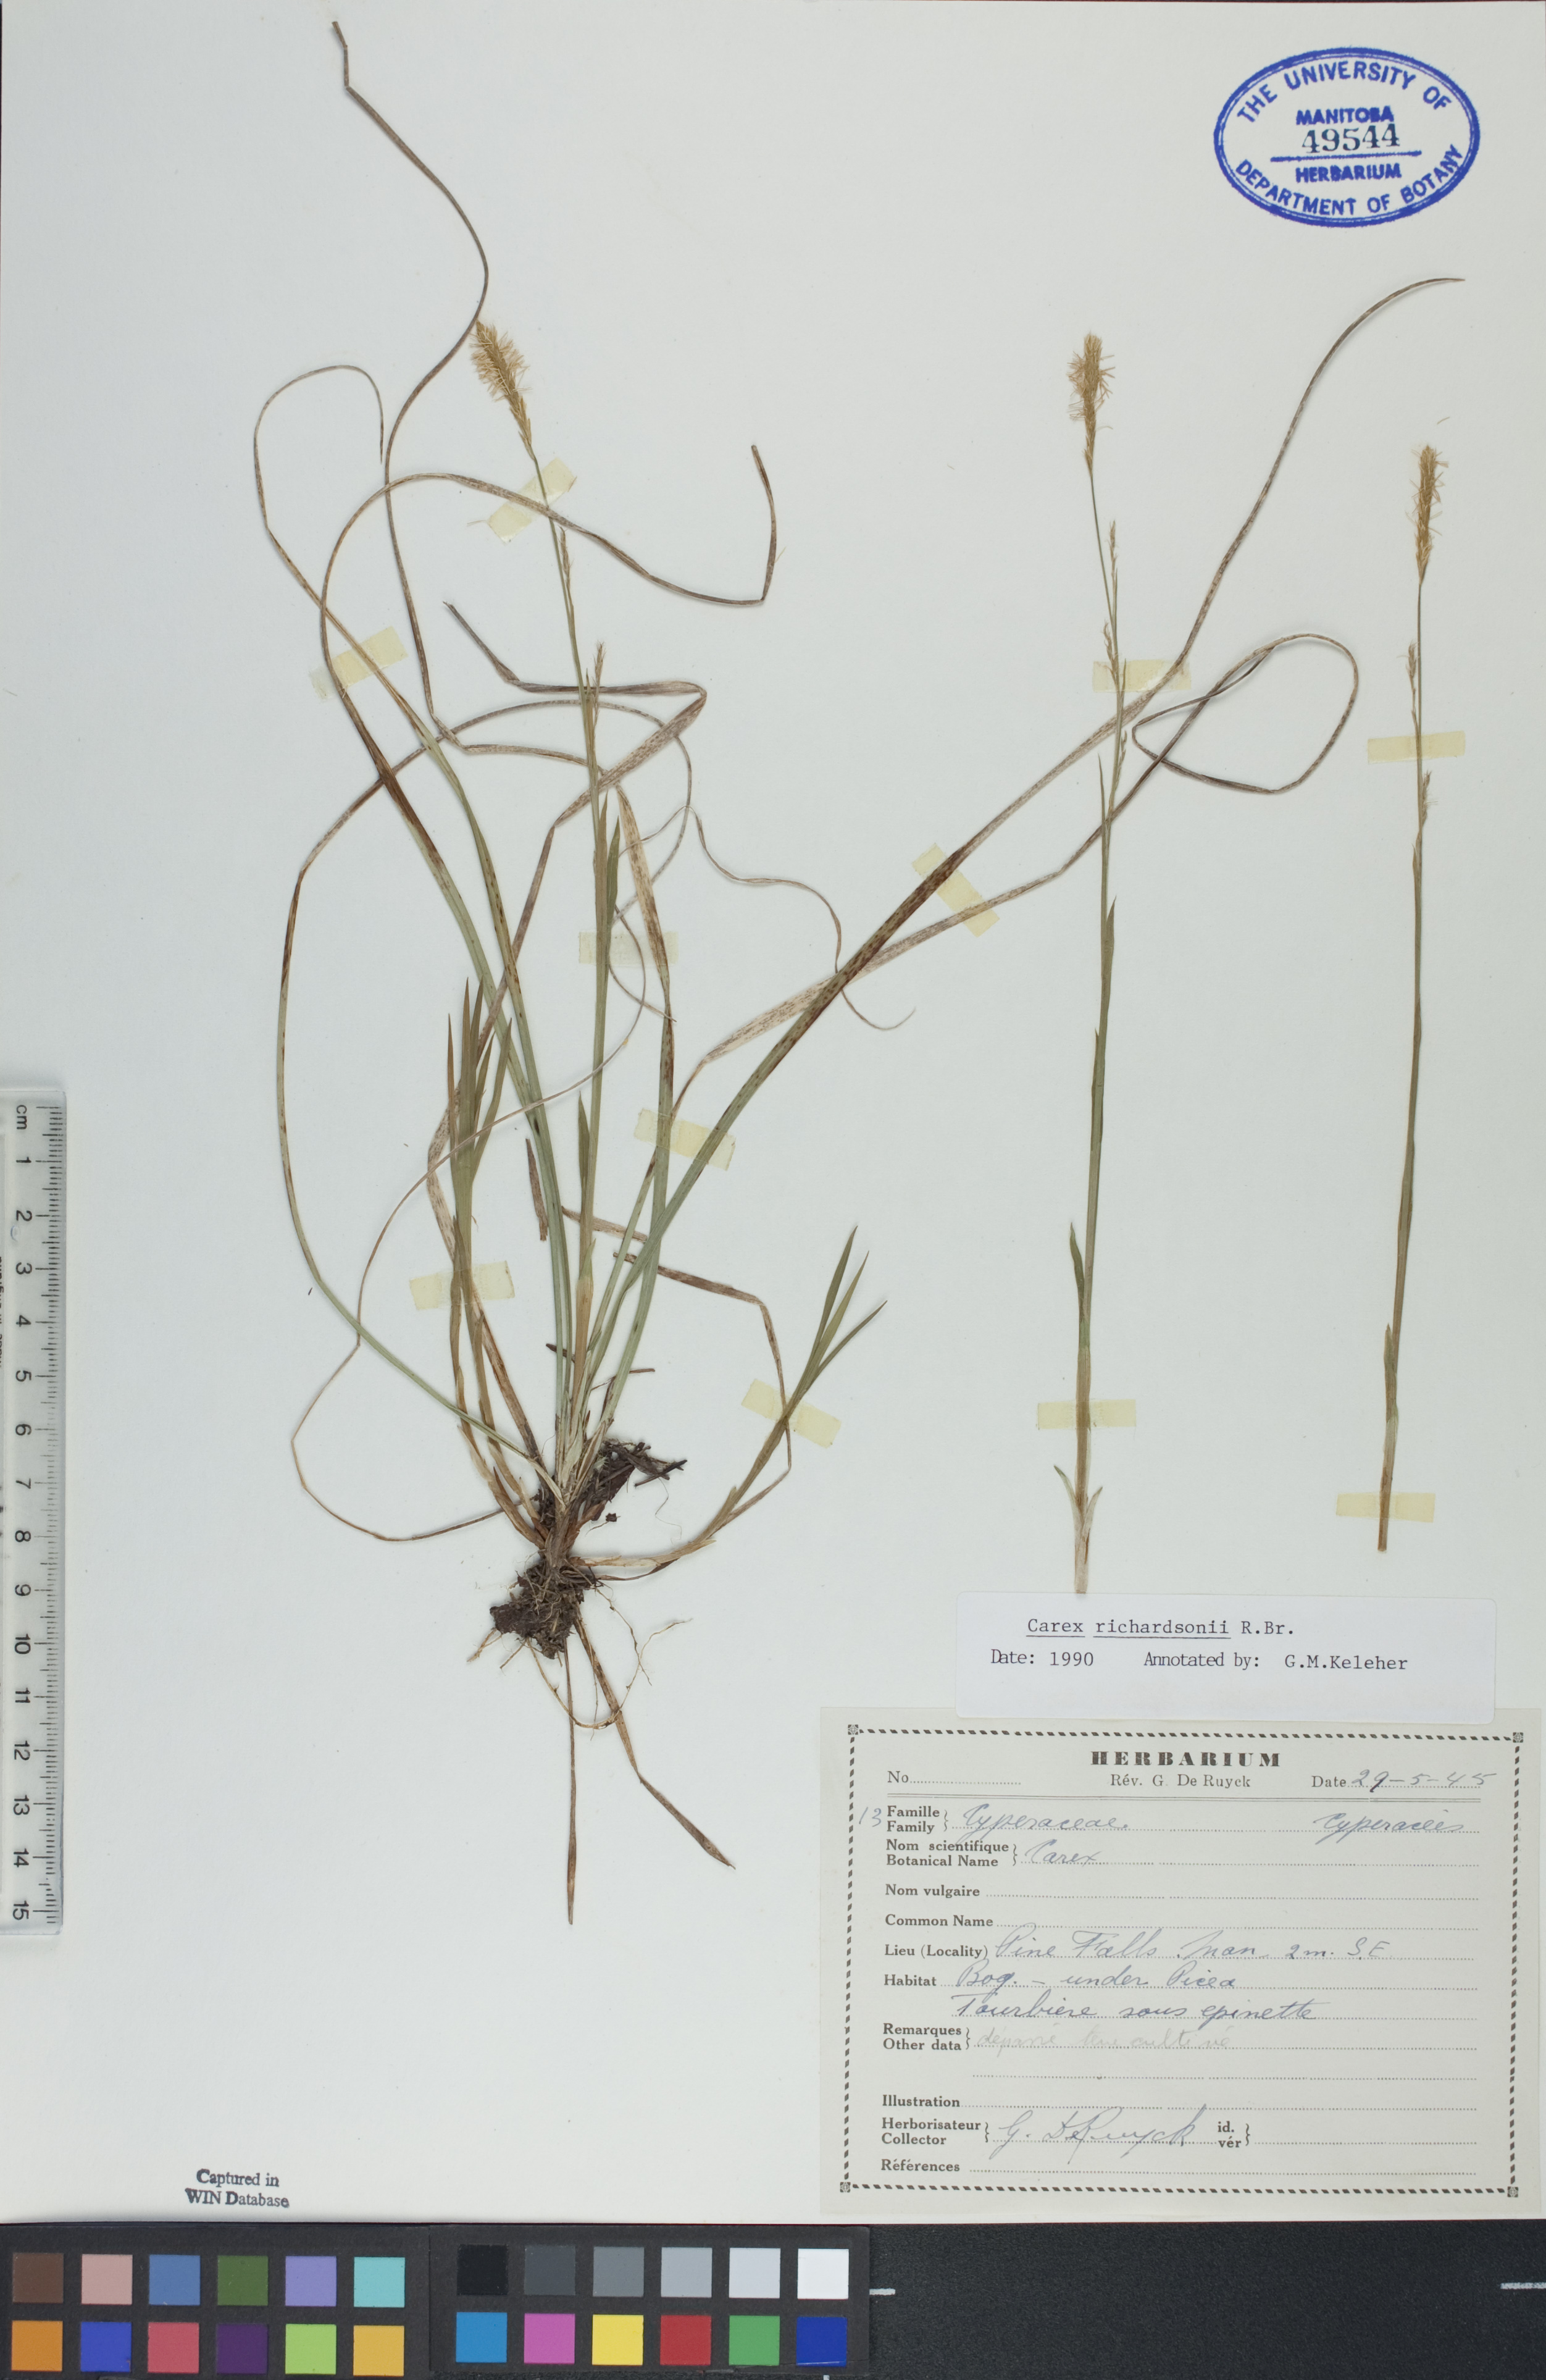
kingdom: Plantae
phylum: Tracheophyta
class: Liliopsida
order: Poales
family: Cyperaceae
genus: Carex
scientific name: Carex richardsonii
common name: Prairie hummock sedge
